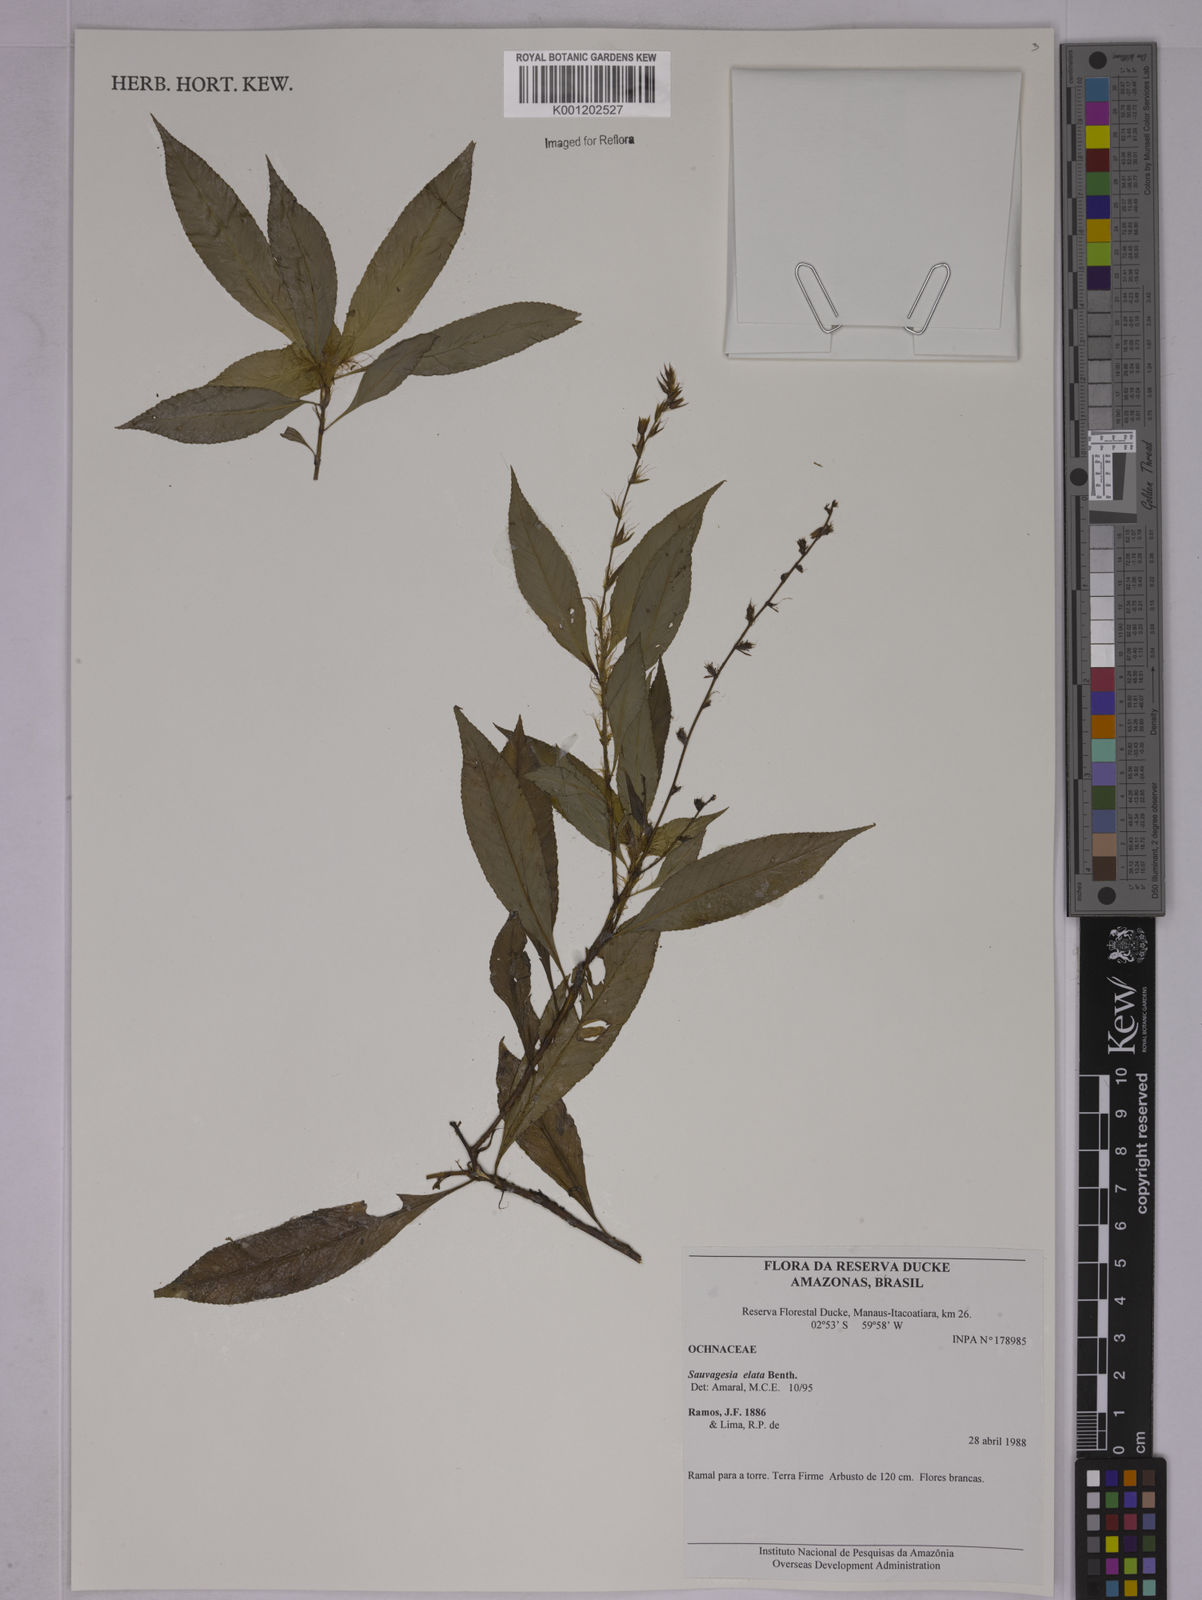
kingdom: Plantae
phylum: Tracheophyta
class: Magnoliopsida
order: Malpighiales
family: Ochnaceae
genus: Sauvagesia
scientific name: Sauvagesia elata
